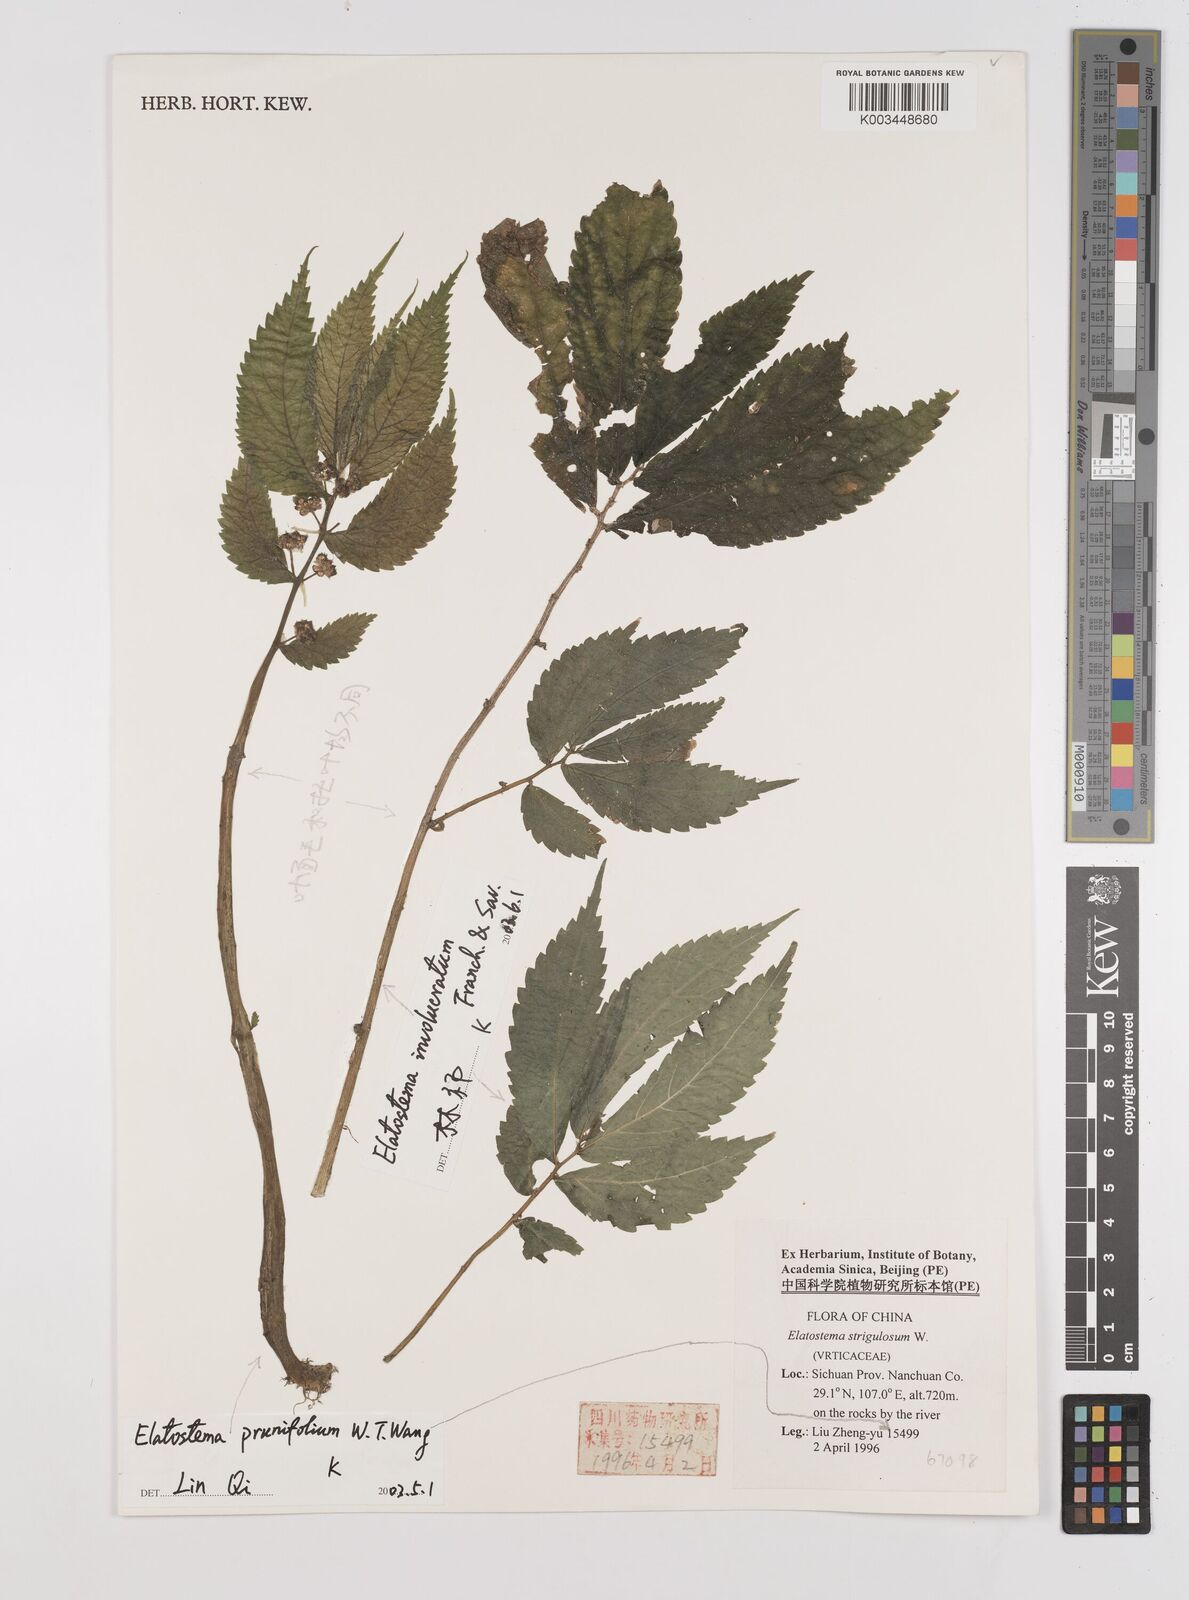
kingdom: Plantae
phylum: Tracheophyta
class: Magnoliopsida
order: Rosales
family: Urticaceae
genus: Elatostema
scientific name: Elatostema prunifolium
